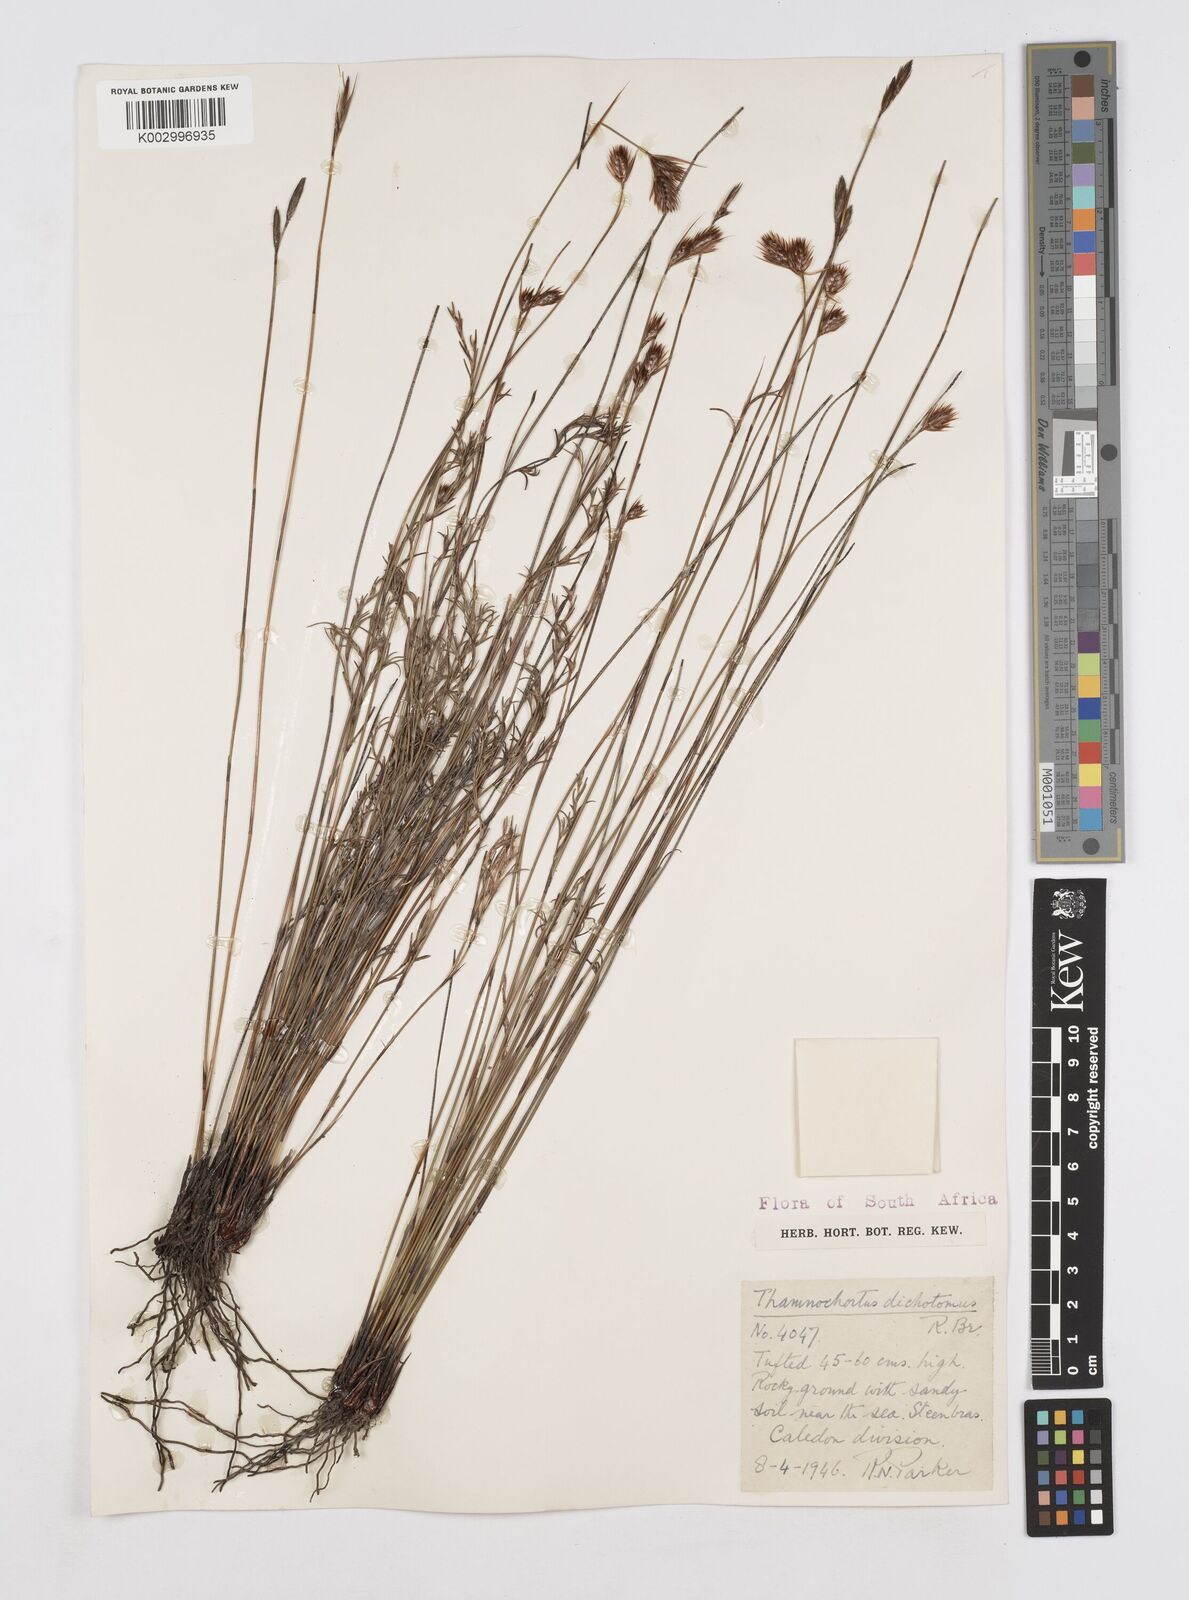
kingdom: Plantae
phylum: Tracheophyta
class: Liliopsida
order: Poales
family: Restionaceae
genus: Thamnochortus
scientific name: Thamnochortus lucens
